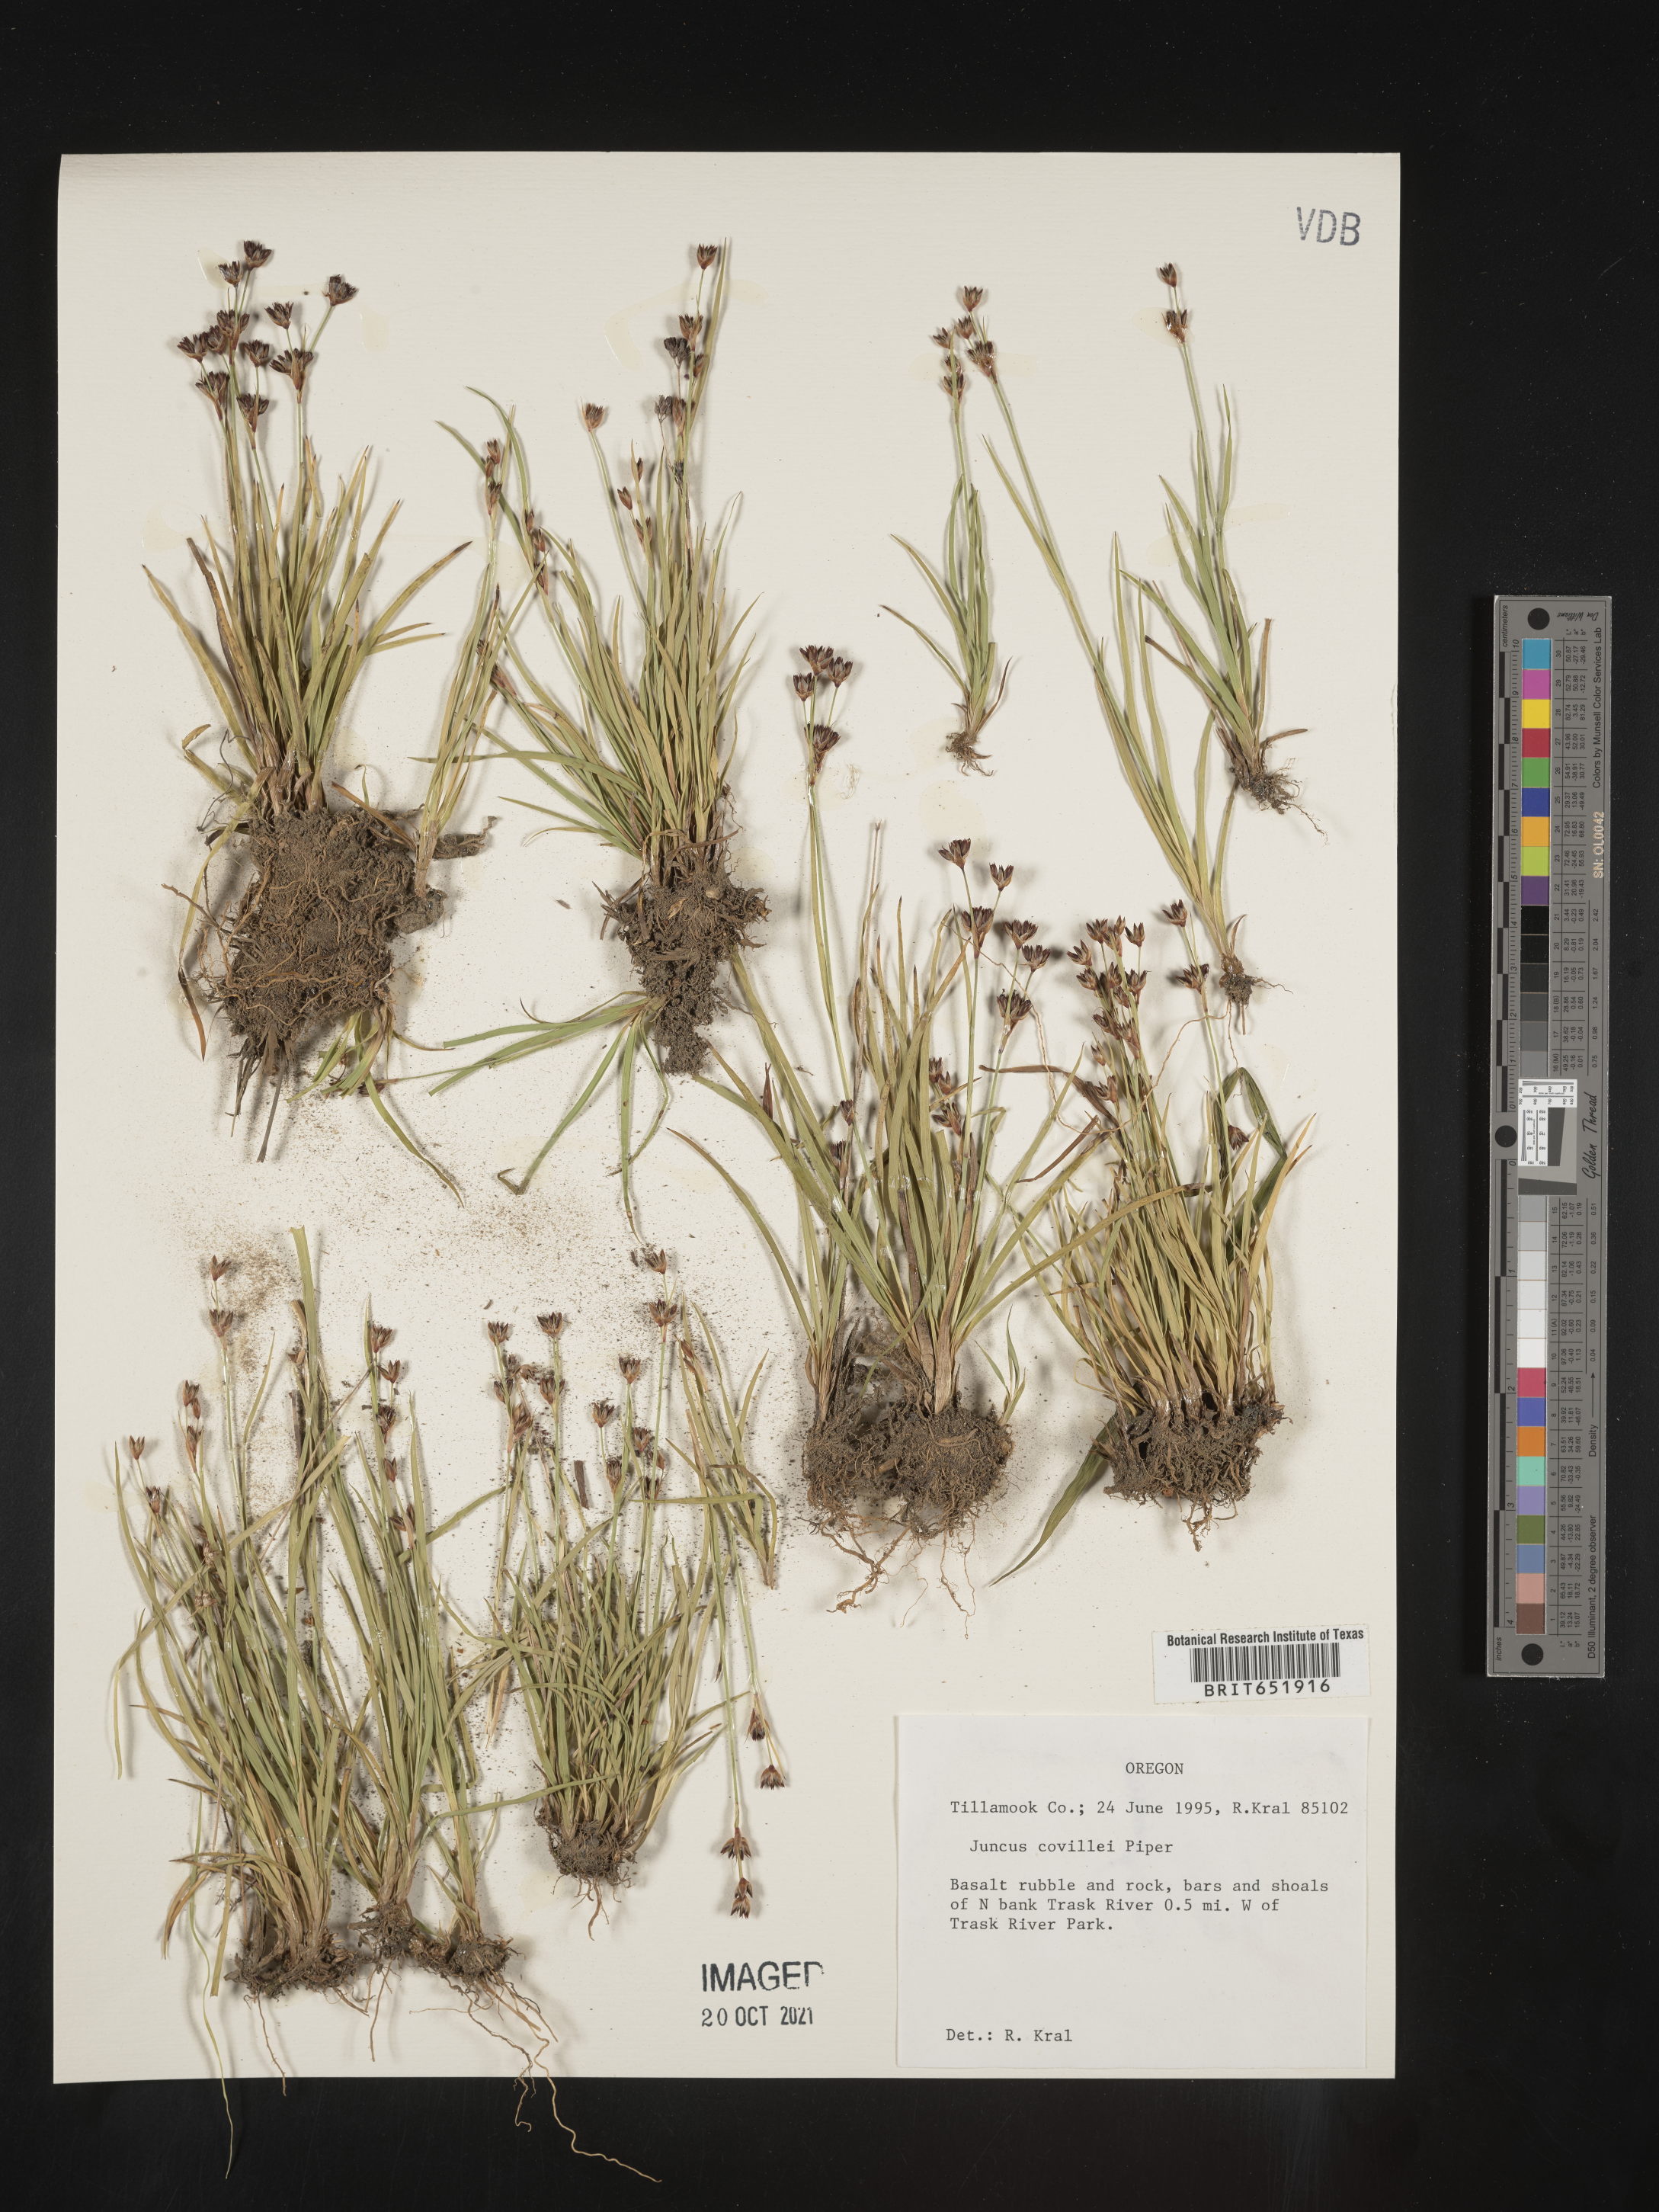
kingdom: Plantae
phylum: Tracheophyta
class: Liliopsida
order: Poales
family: Juncaceae
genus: Juncus
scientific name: Juncus covillei
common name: Coville's rush
